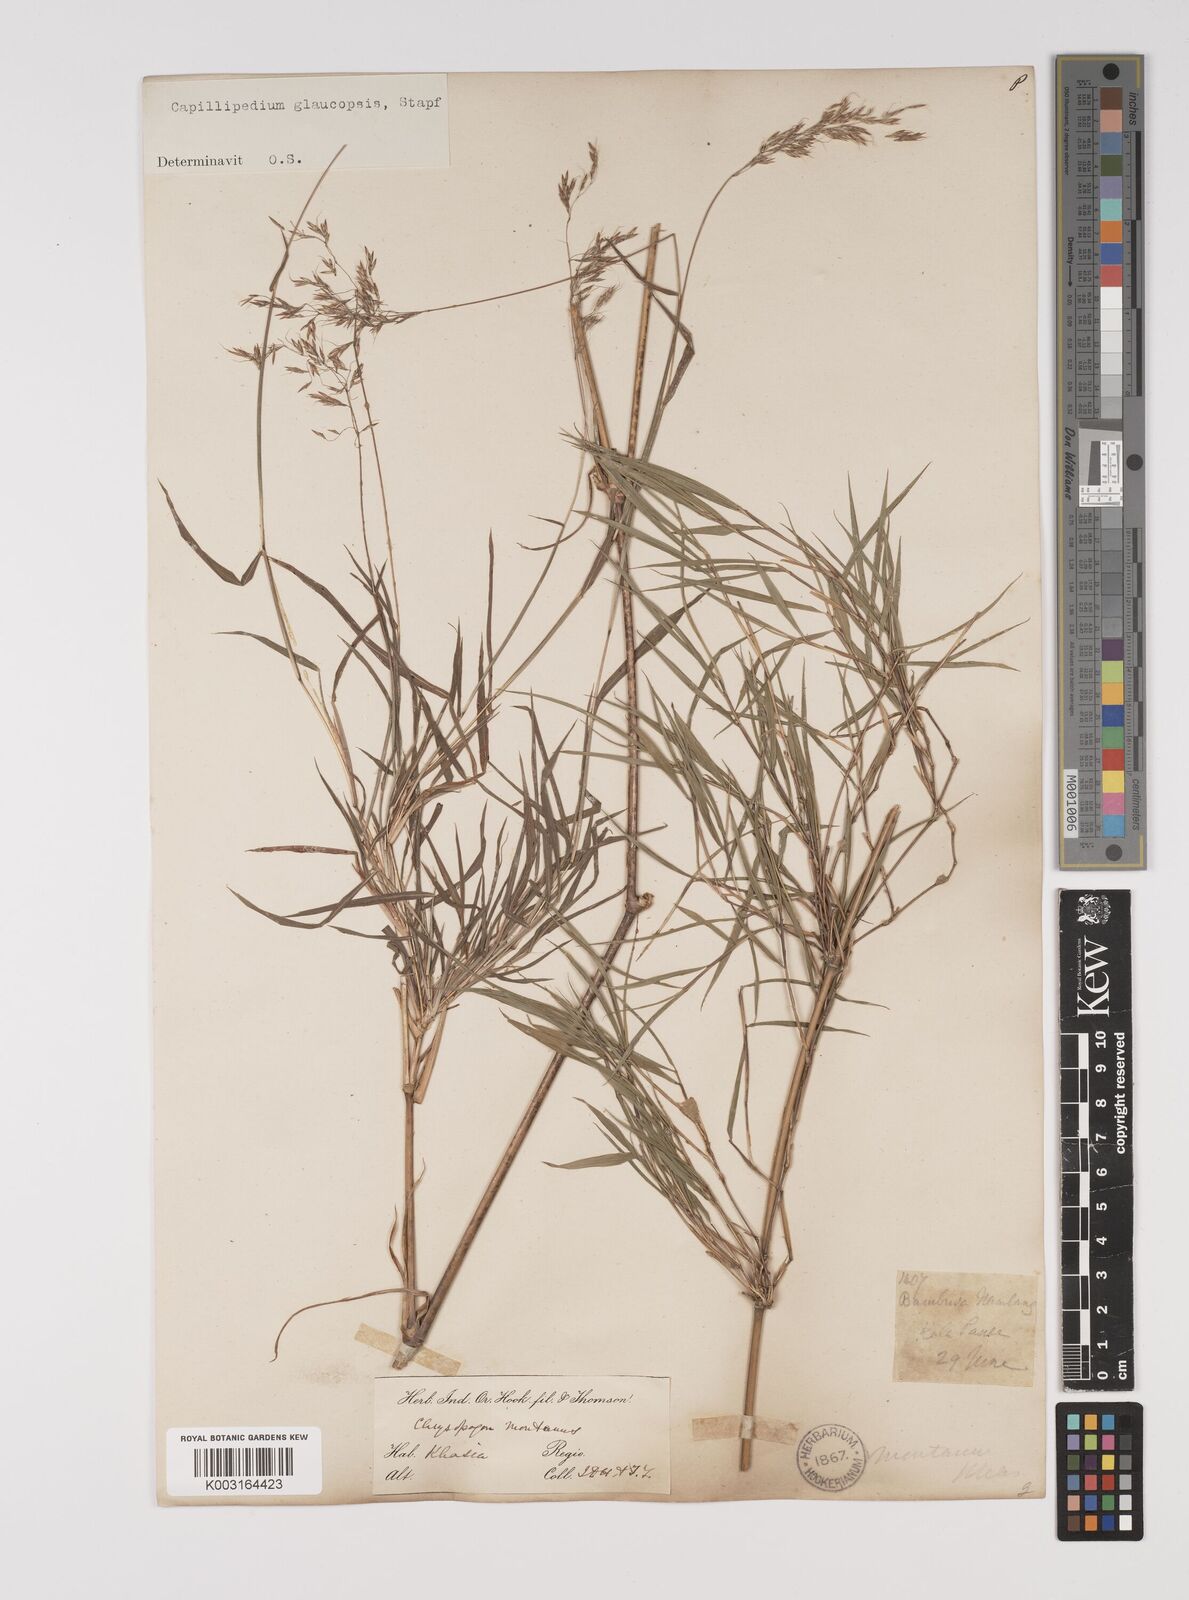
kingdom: Plantae
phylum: Tracheophyta
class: Liliopsida
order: Poales
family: Poaceae
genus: Capillipedium
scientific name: Capillipedium assimile
